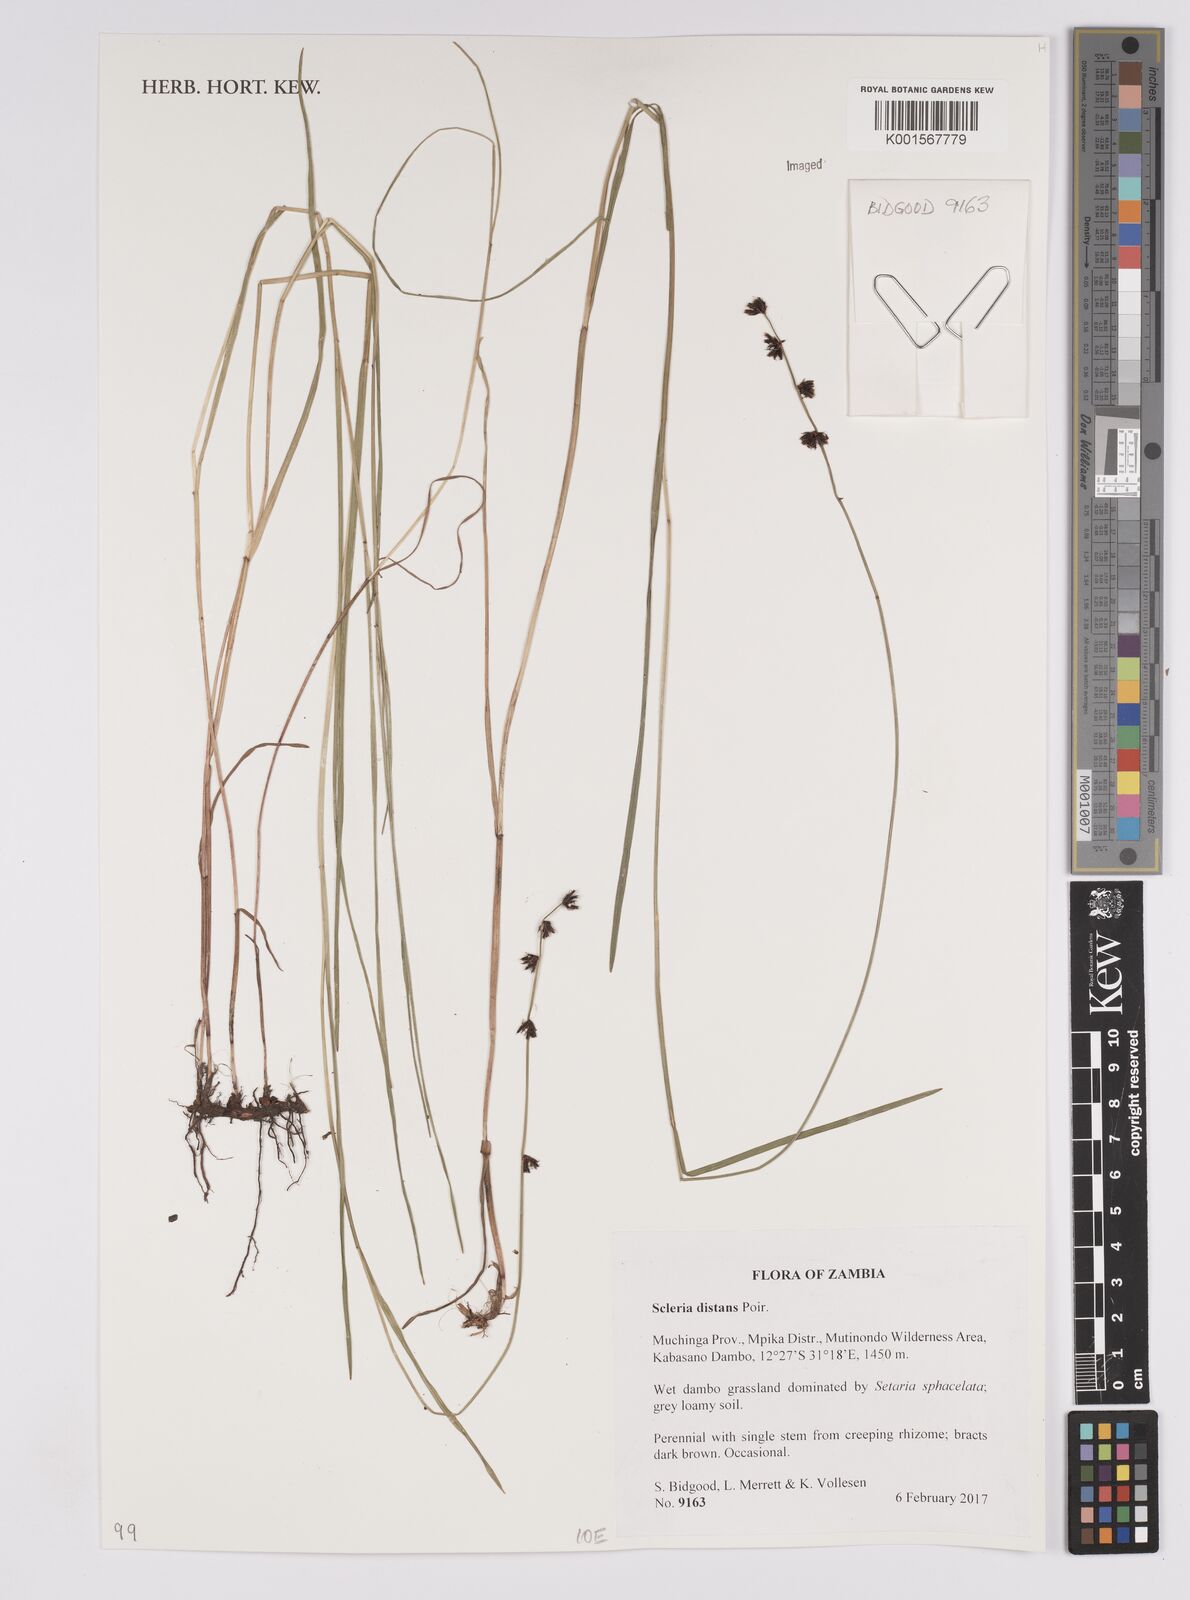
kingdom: Plantae
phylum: Tracheophyta
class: Liliopsida
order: Poales
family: Cyperaceae
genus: Scleria
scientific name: Scleria distans
